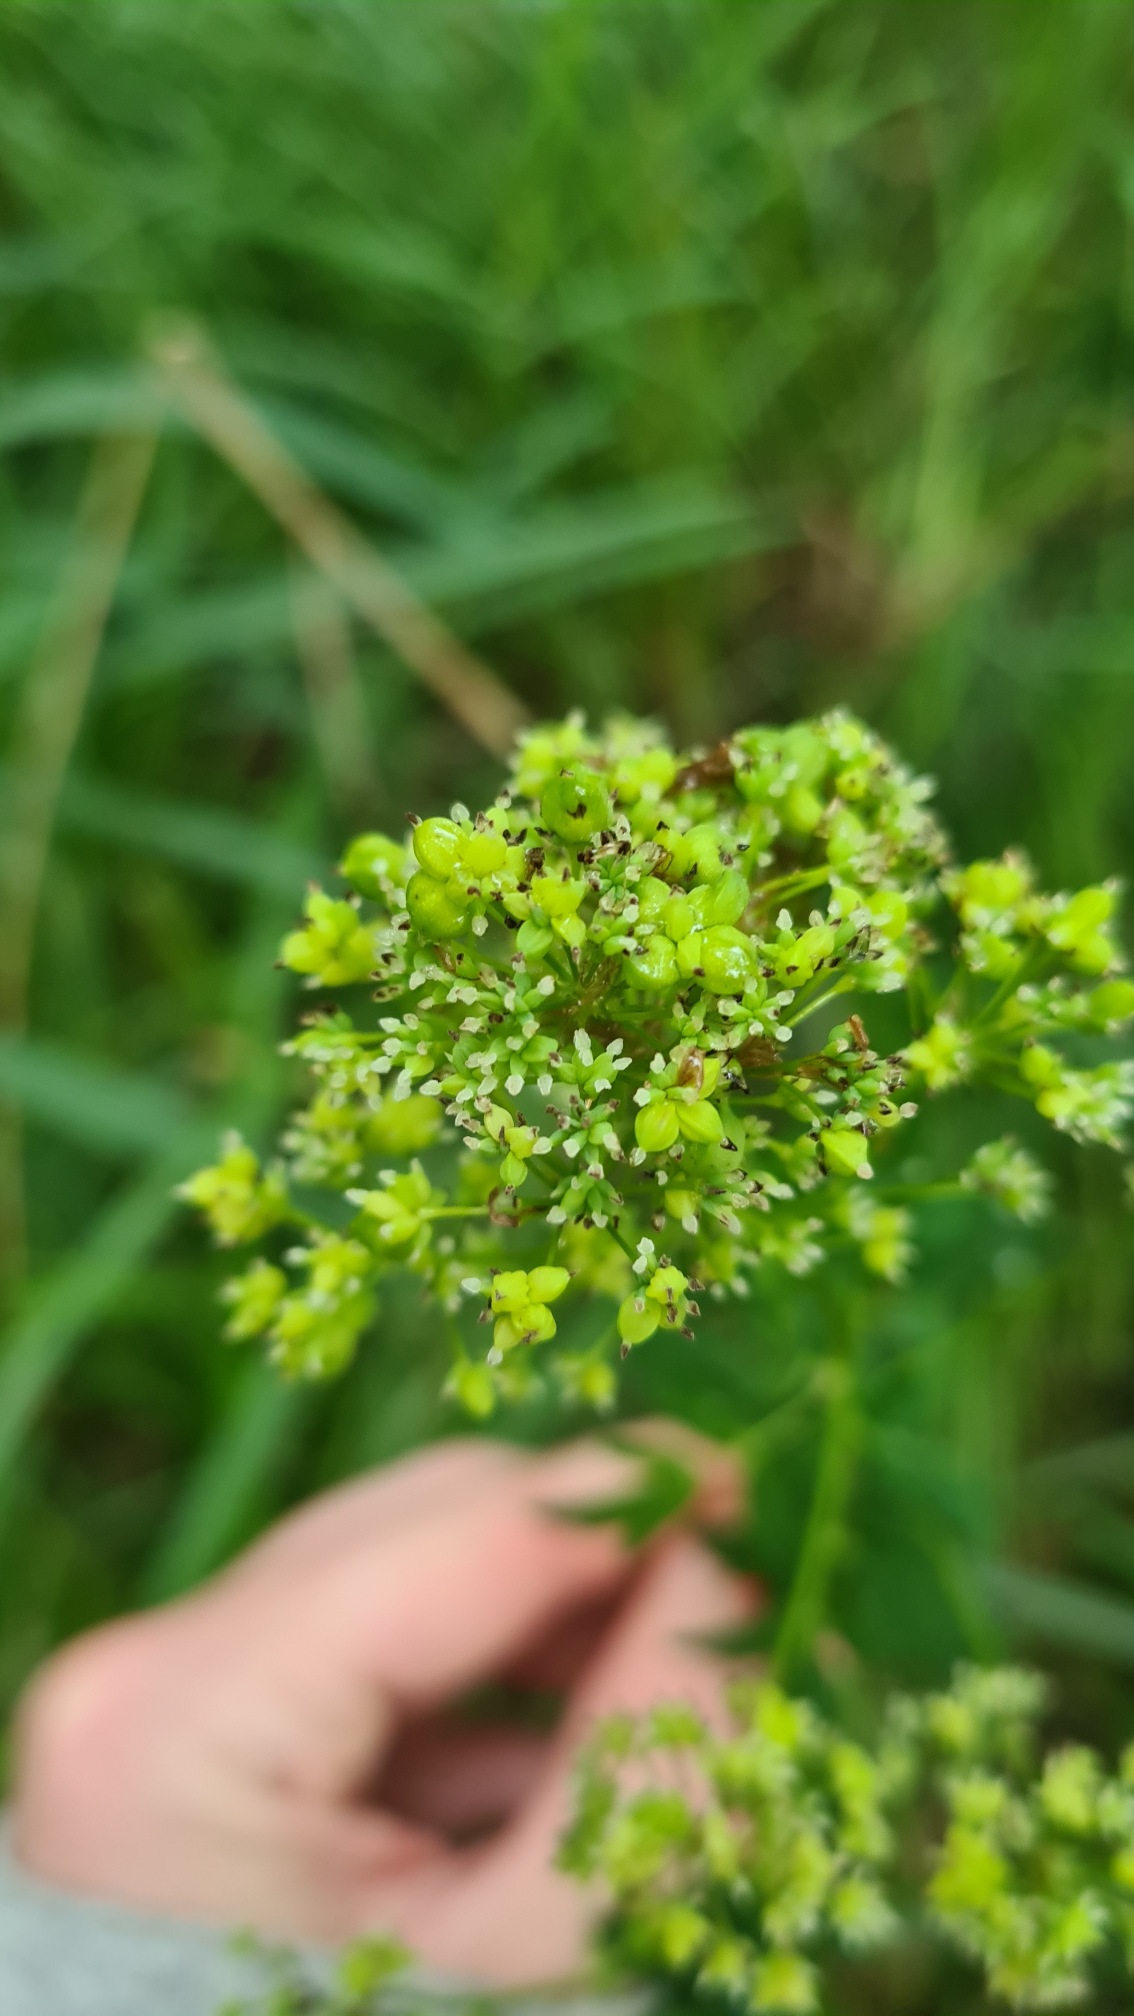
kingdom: Plantae
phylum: Tracheophyta
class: Magnoliopsida
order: Ranunculales
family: Ranunculaceae
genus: Thalictrum
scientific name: Thalictrum flavum
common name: Gul frøstjerne
